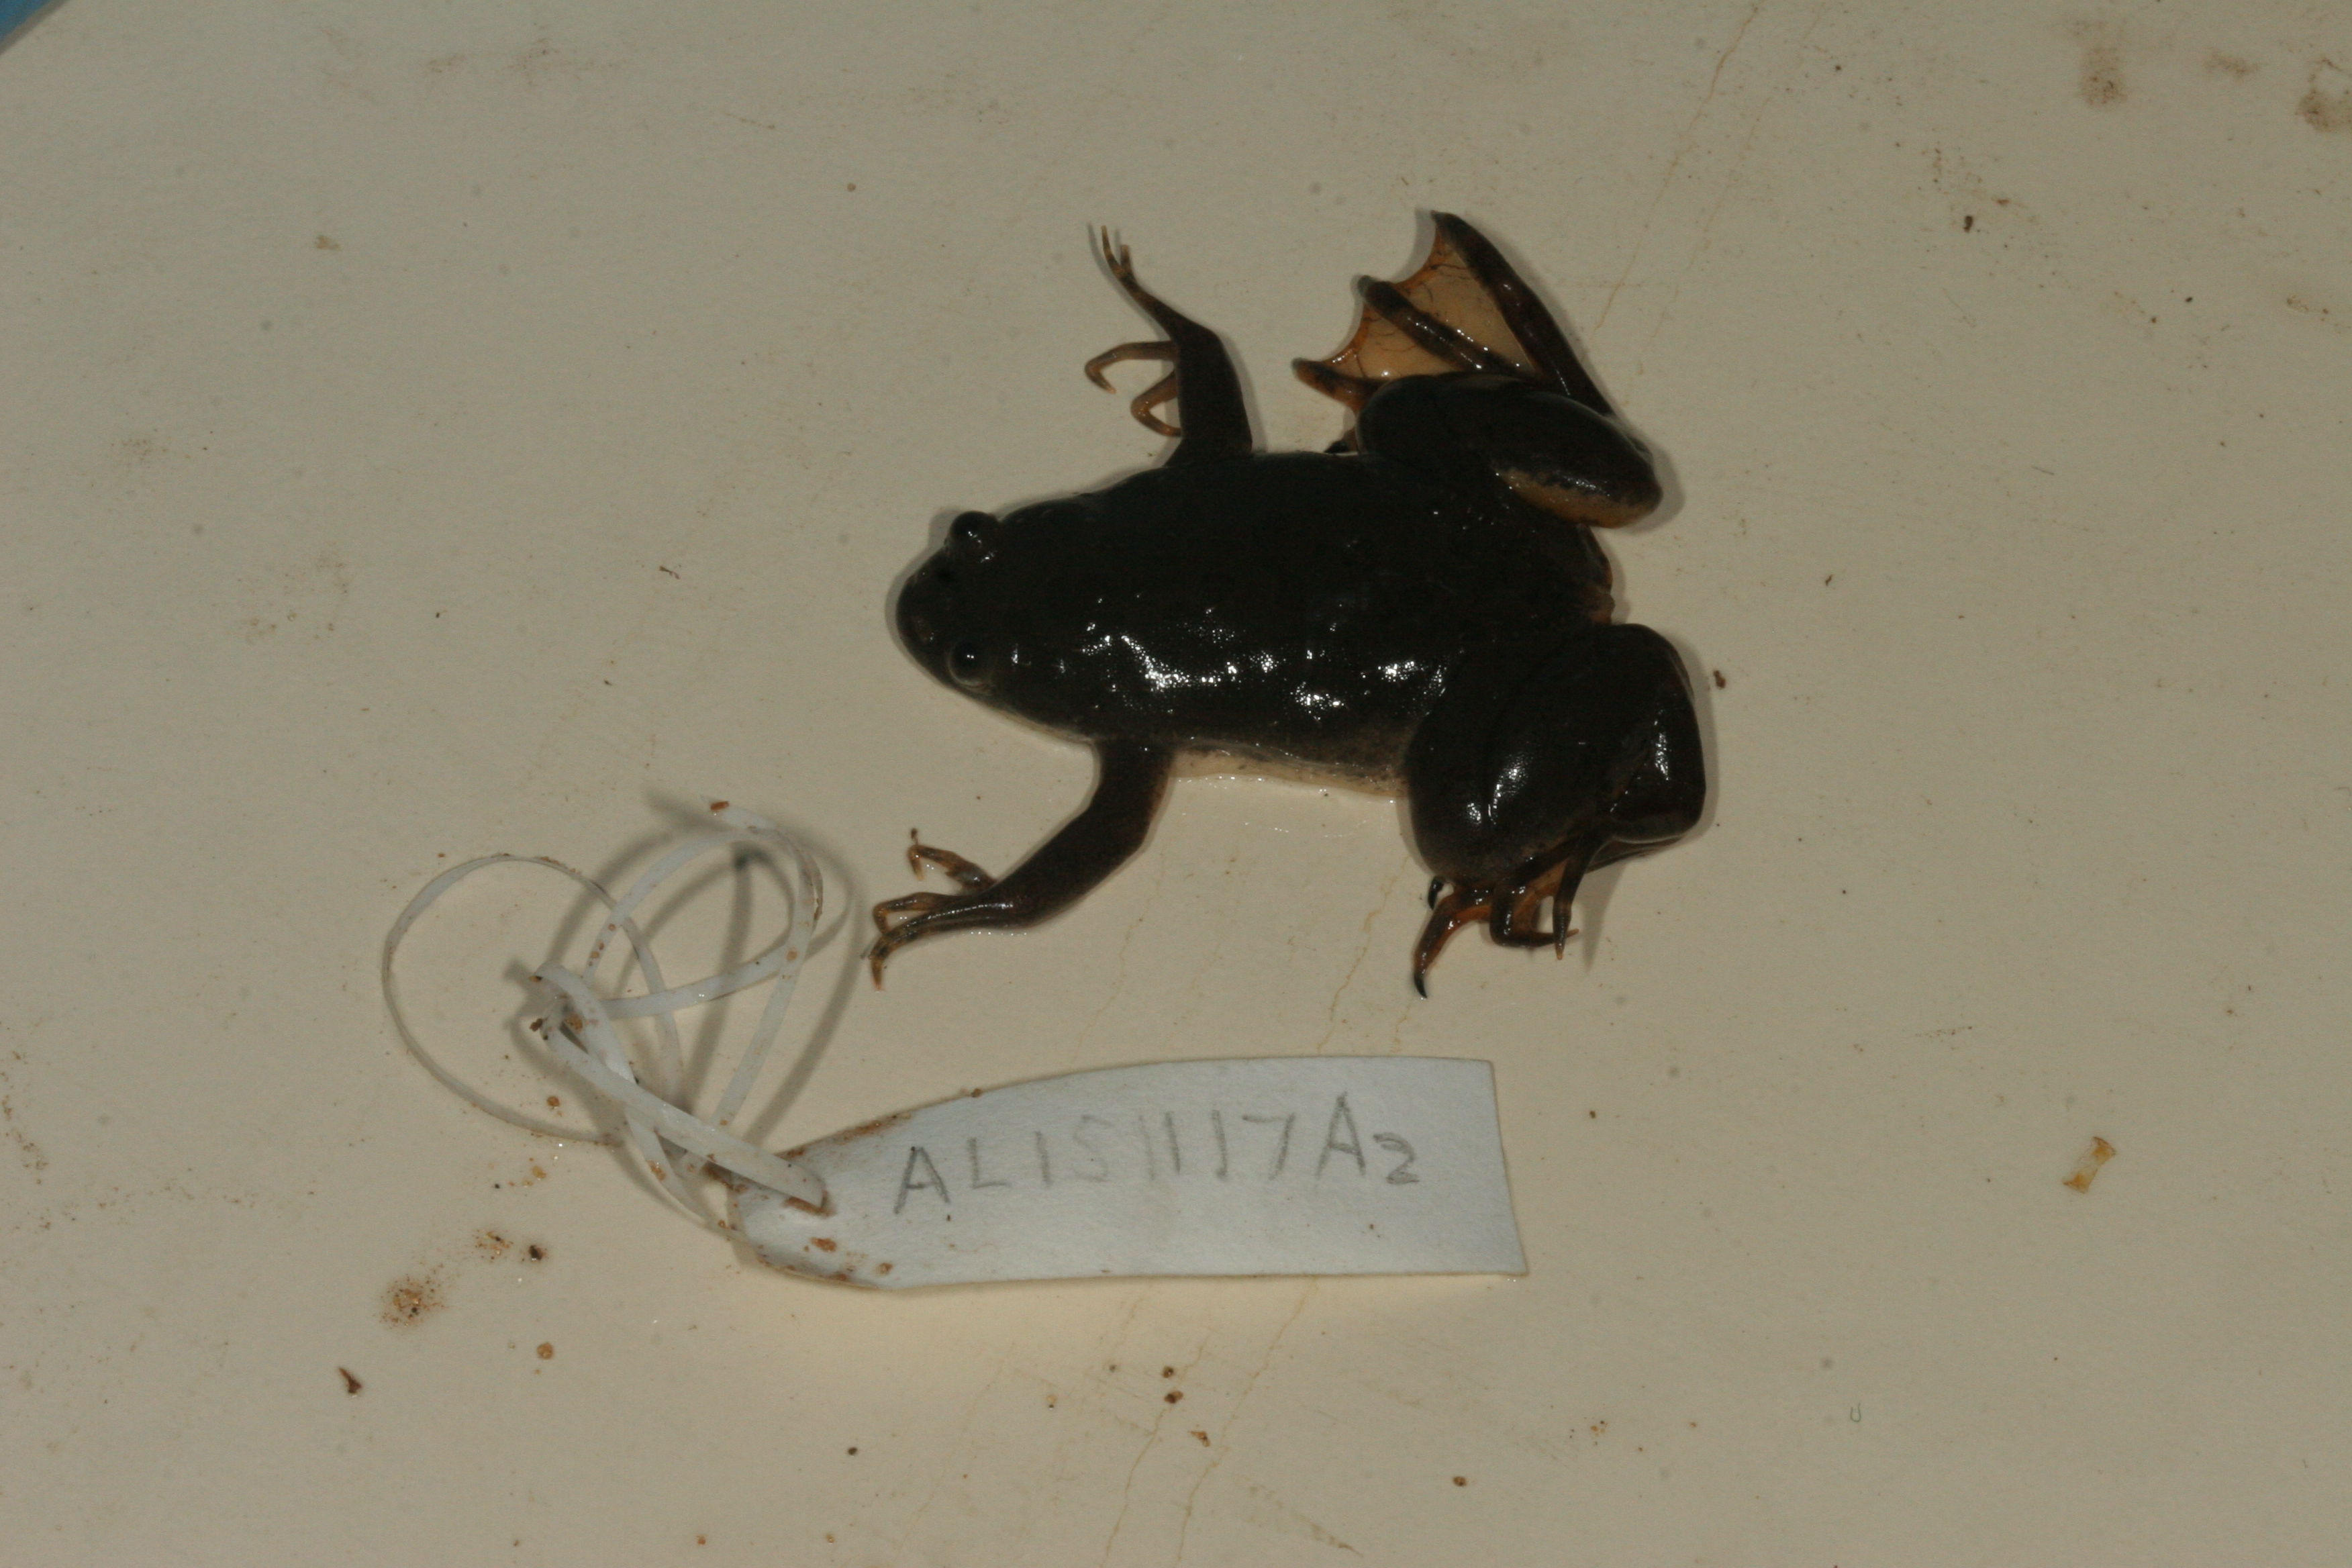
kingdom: Animalia
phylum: Chordata
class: Amphibia
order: Anura
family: Pipidae
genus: Xenopus
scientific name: Xenopus muelleri
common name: Muller's clawed frog
